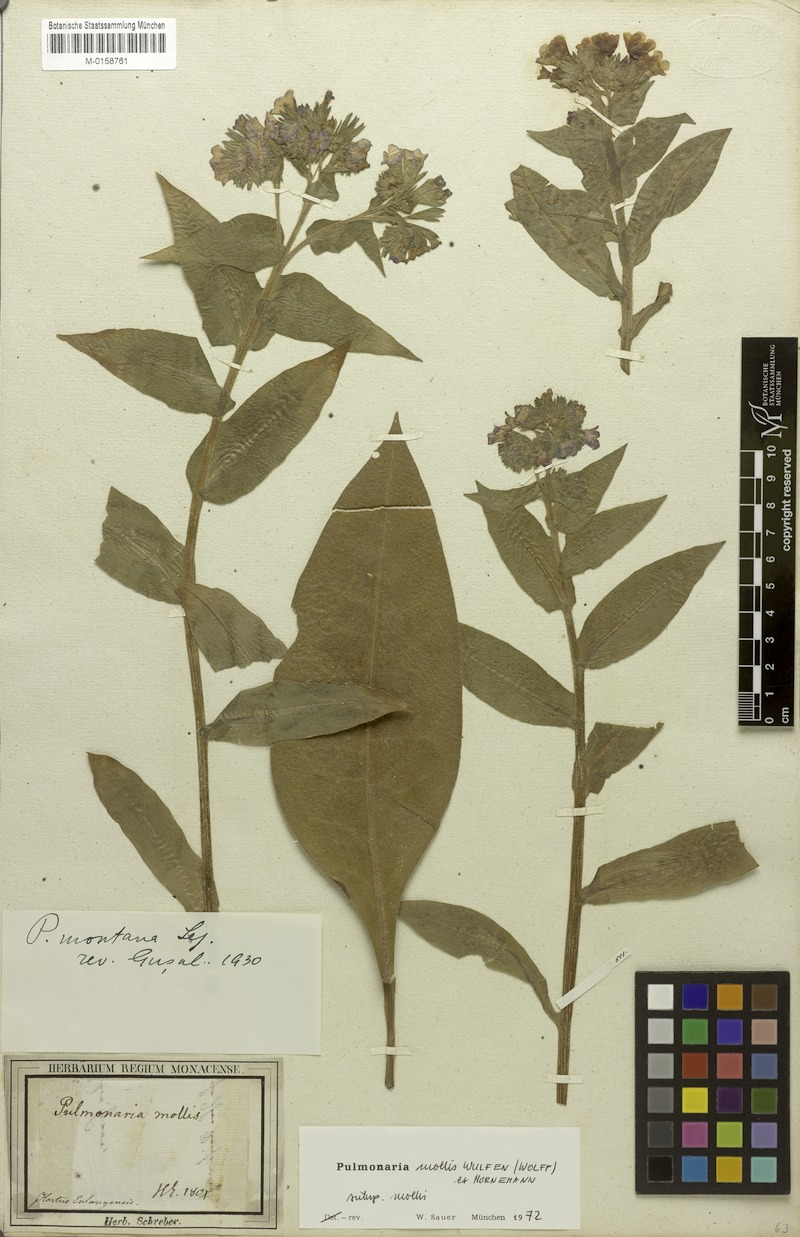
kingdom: Plantae
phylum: Tracheophyta
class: Magnoliopsida
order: Boraginales
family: Boraginaceae
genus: Pulmonaria
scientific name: Pulmonaria mollis
